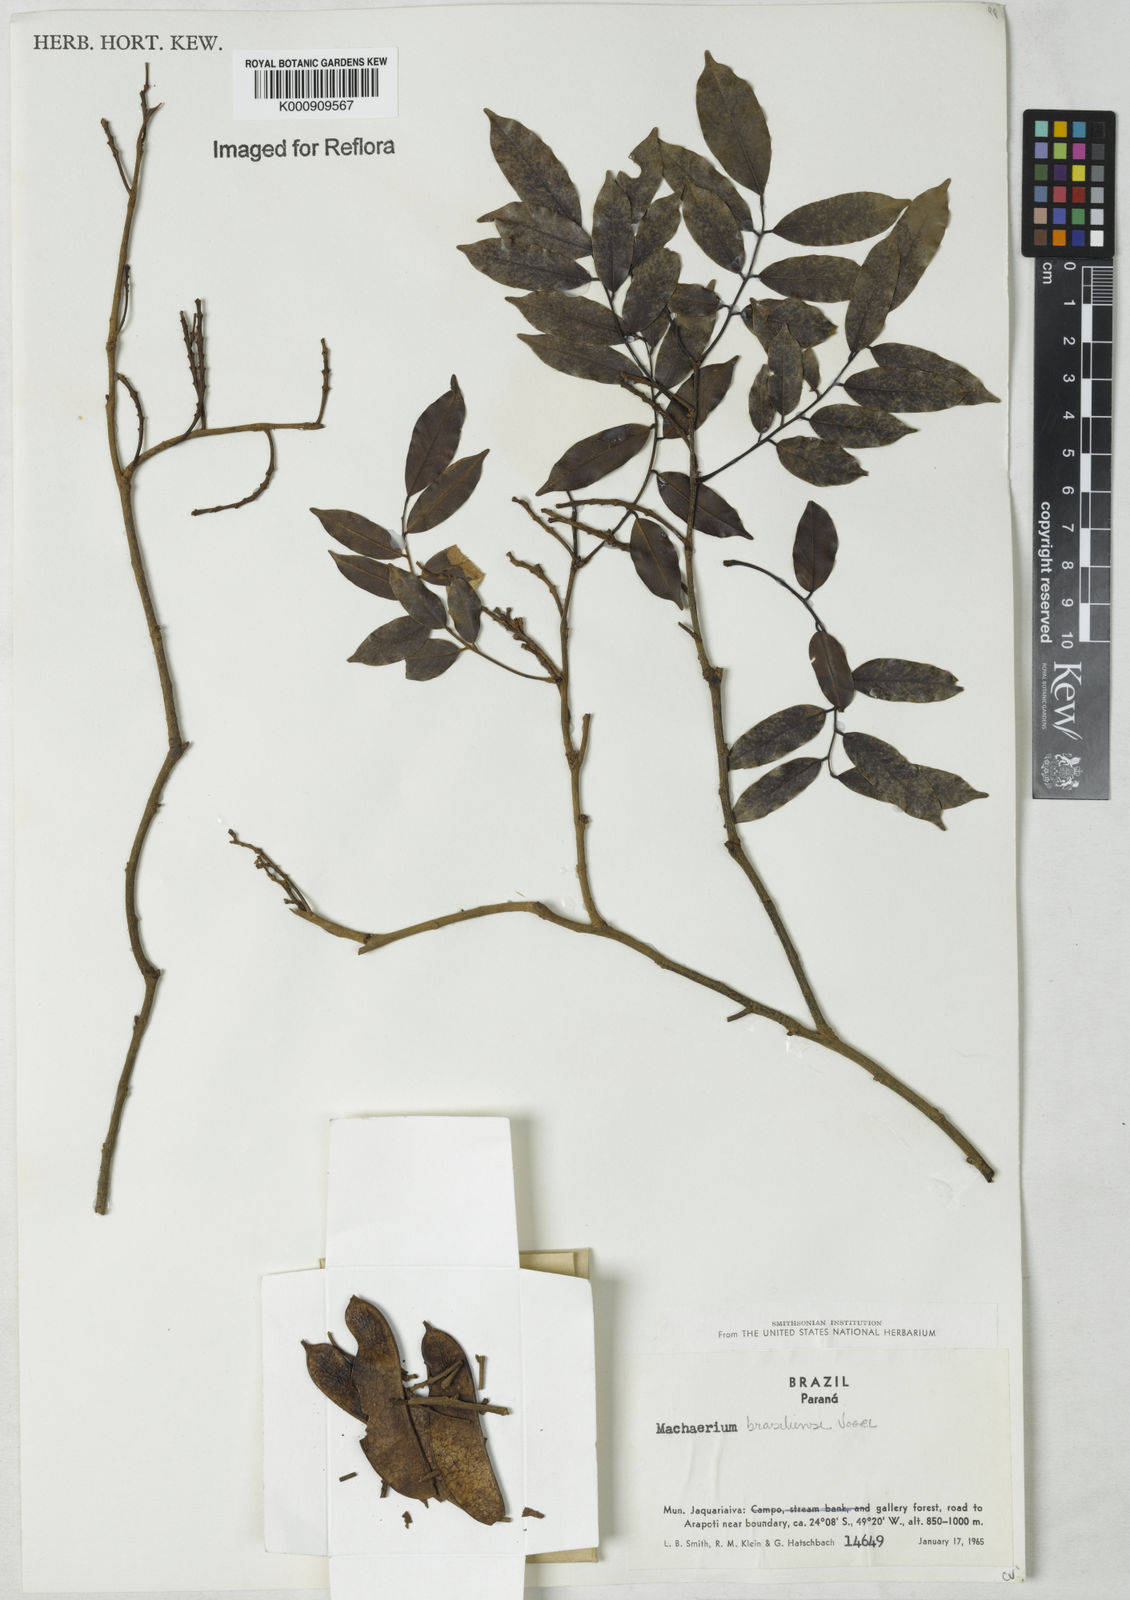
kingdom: Plantae
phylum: Tracheophyta
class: Magnoliopsida
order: Fabales
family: Fabaceae
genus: Machaerium
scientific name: Machaerium brasiliense
